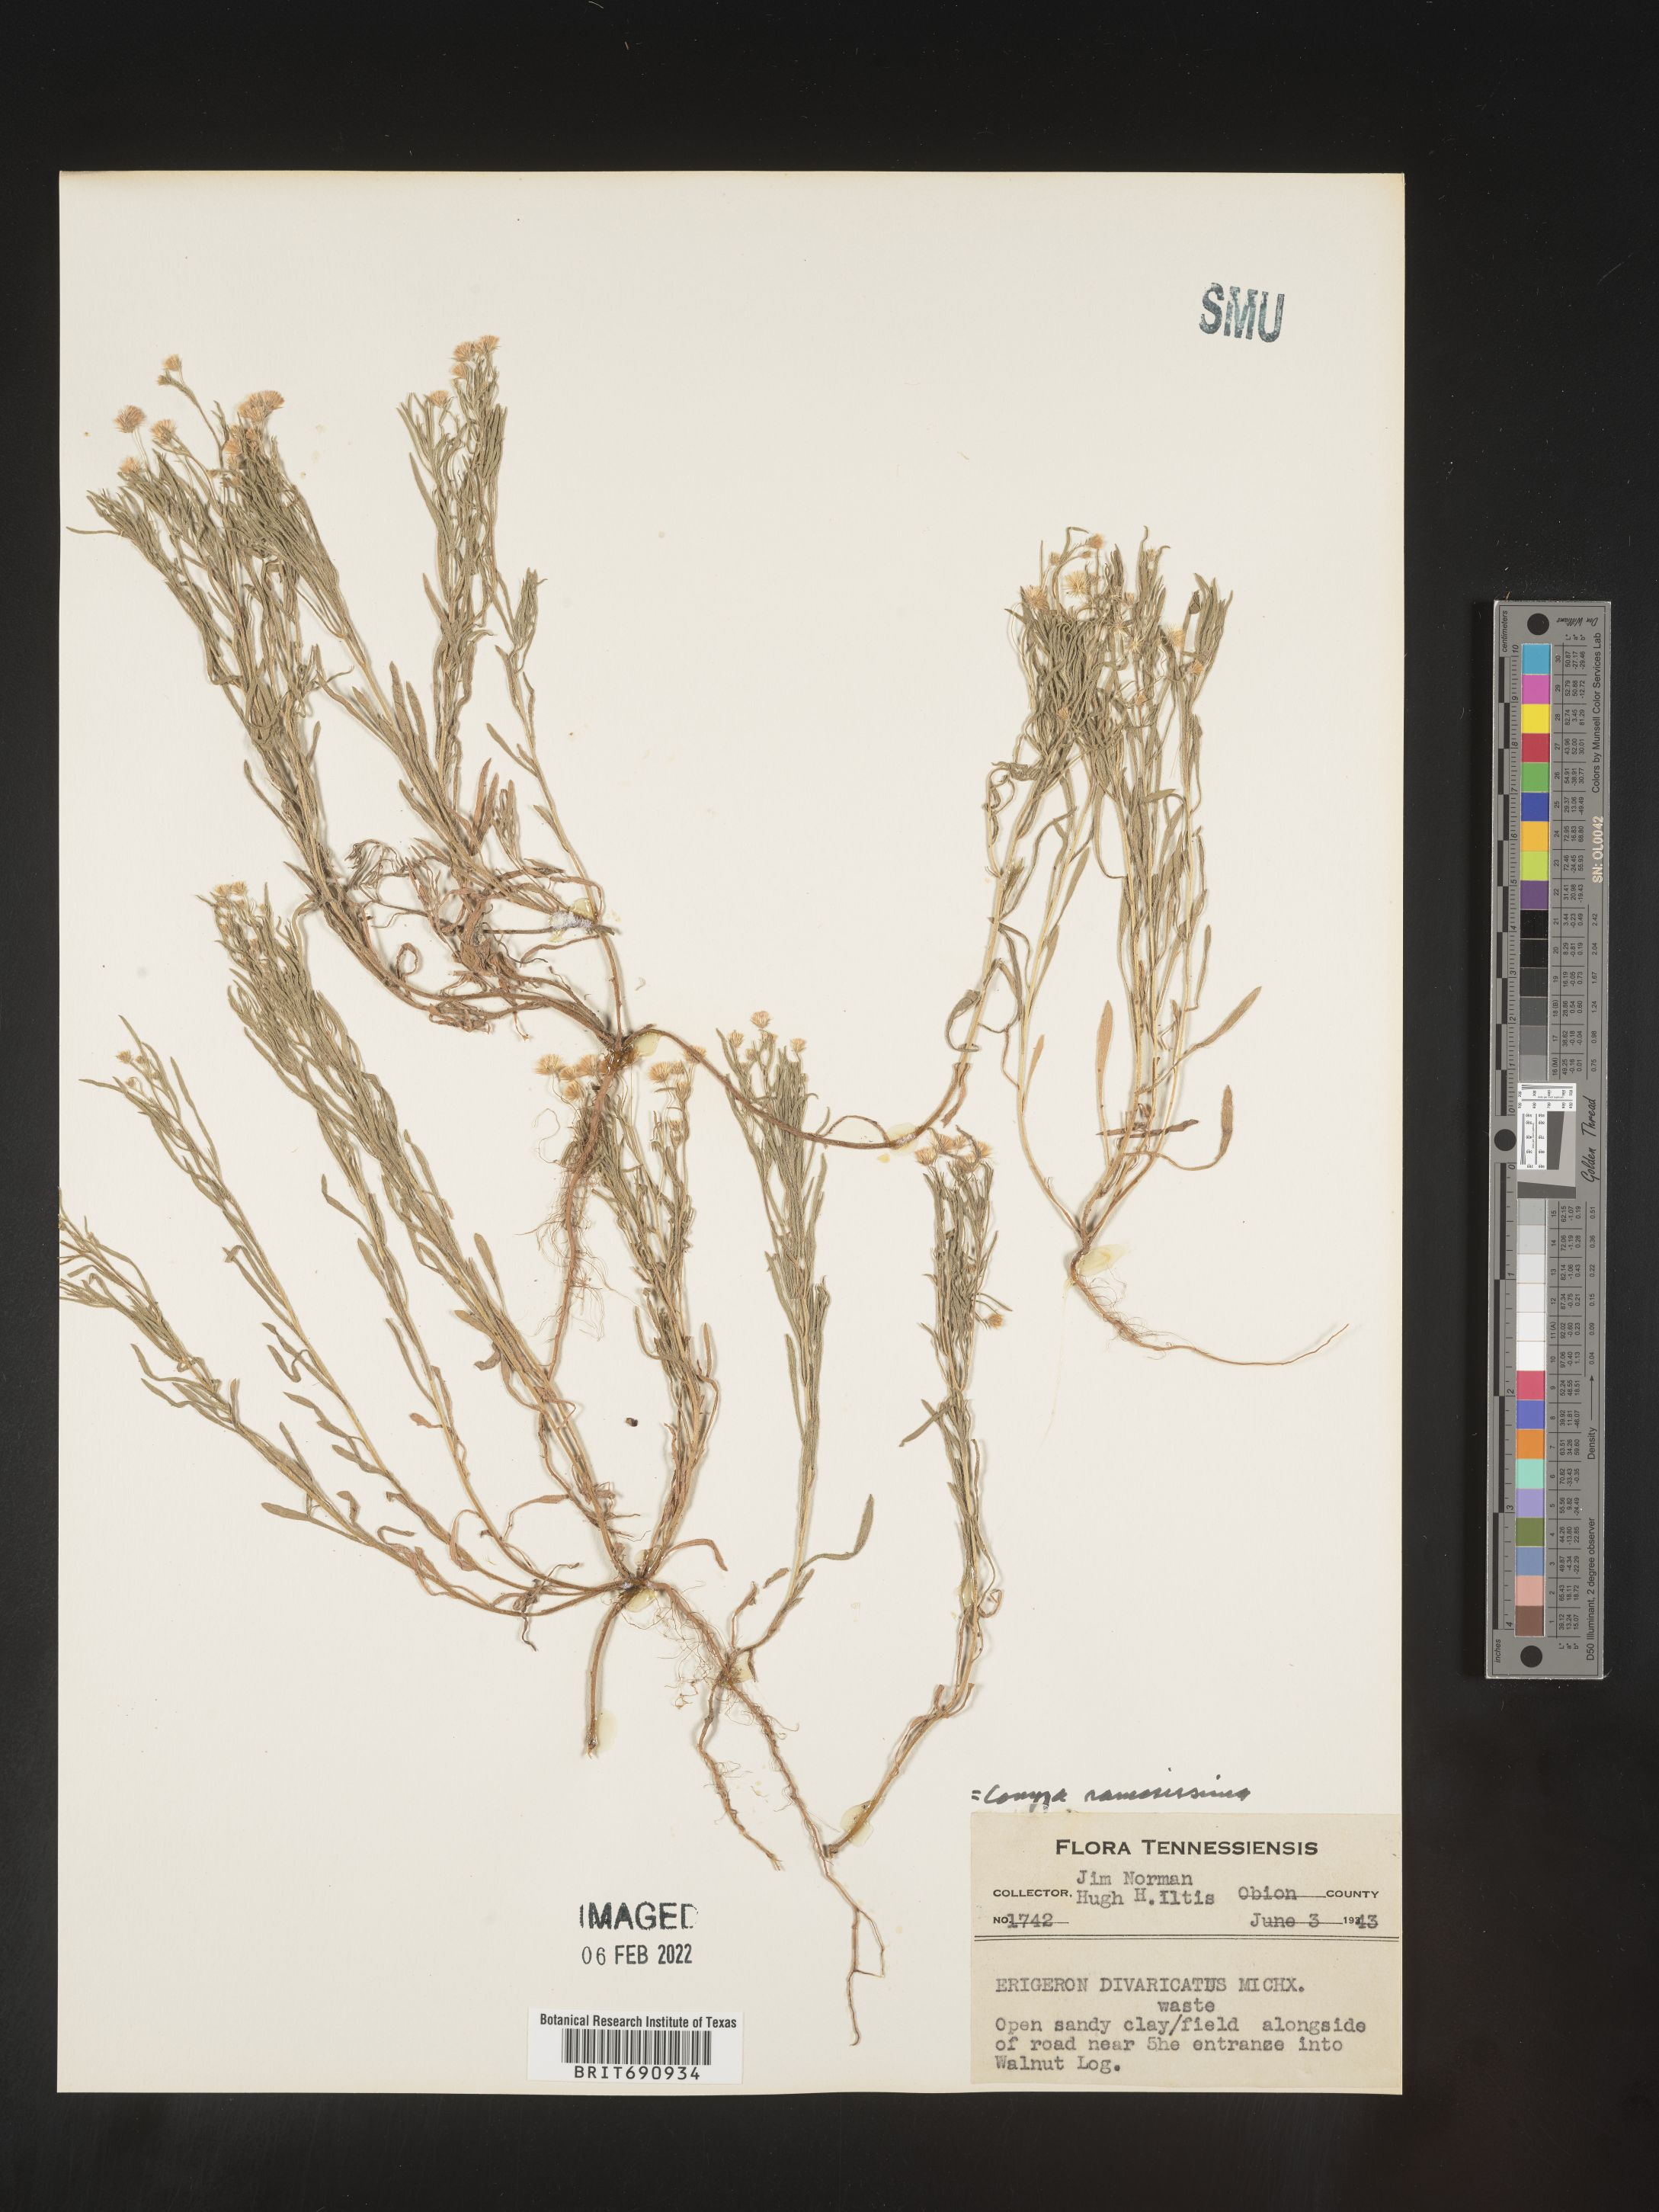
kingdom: Plantae
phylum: Tracheophyta
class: Magnoliopsida
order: Asterales
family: Asteraceae
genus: Erigeron
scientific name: Erigeron divaricatus
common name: Dwarf conyza
